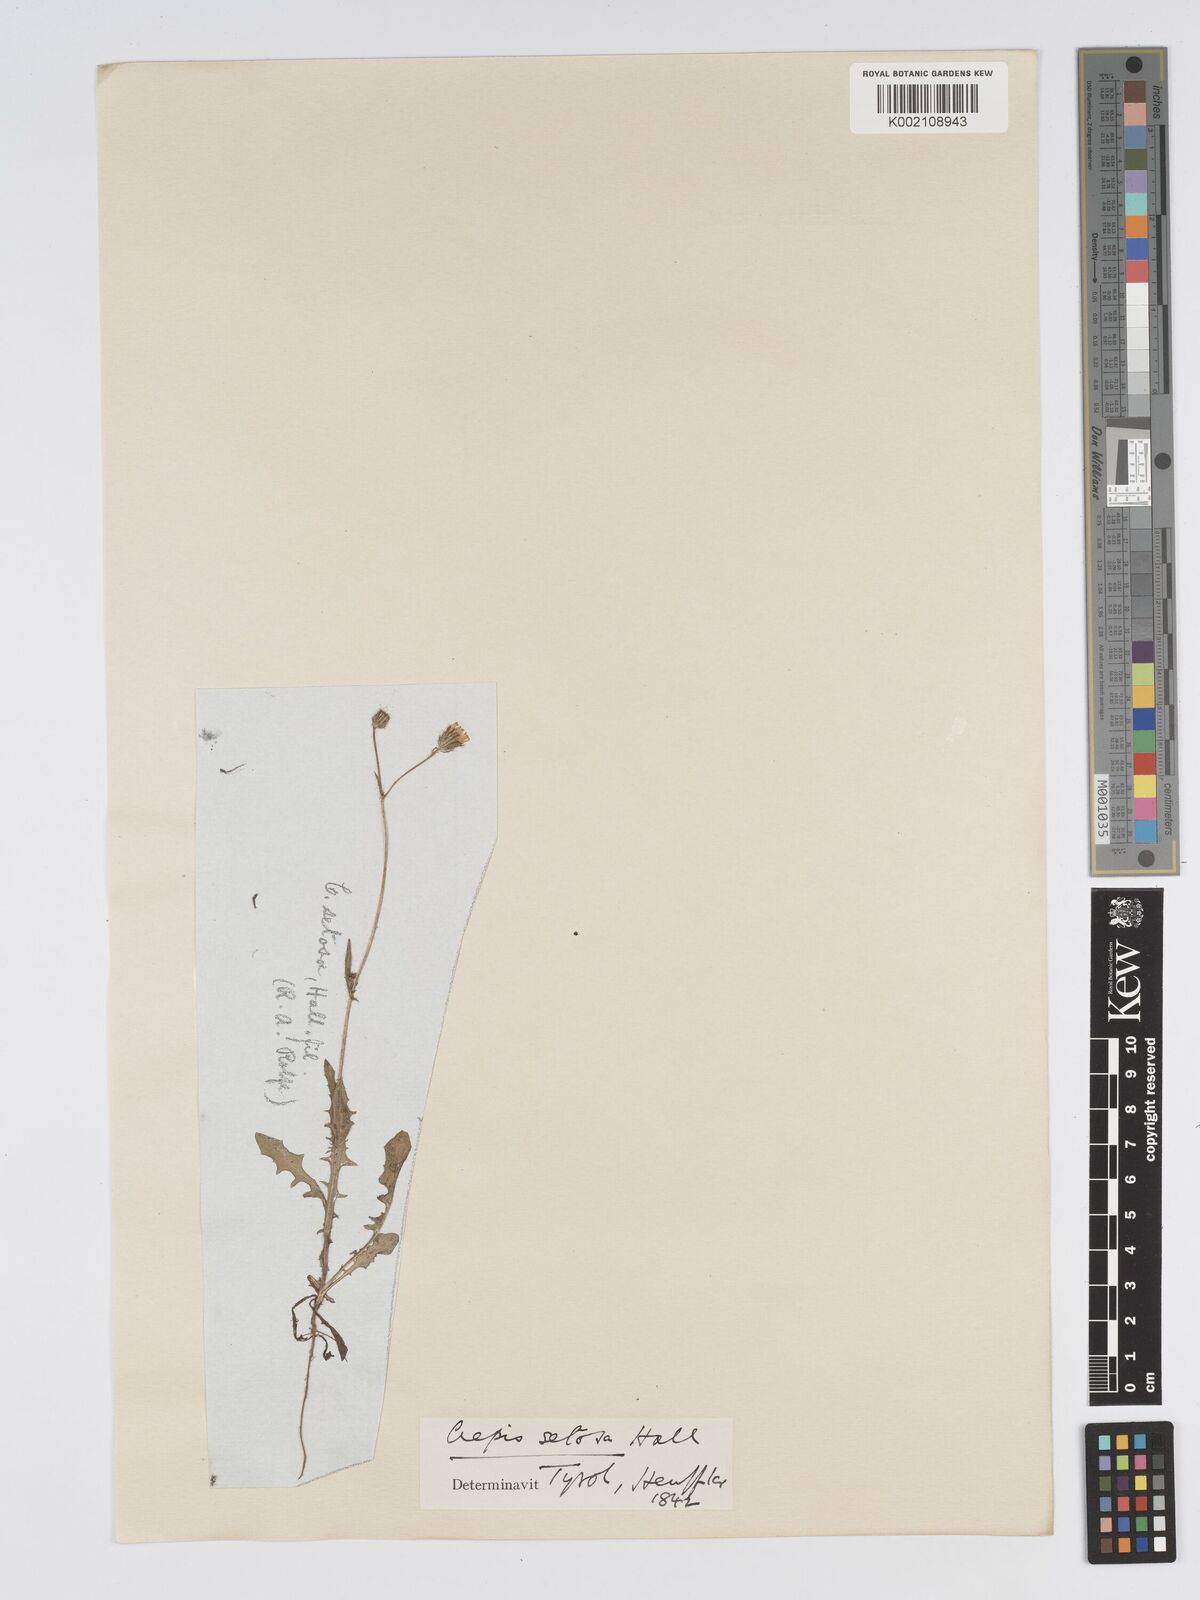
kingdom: Plantae
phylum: Tracheophyta
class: Magnoliopsida
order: Asterales
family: Asteraceae
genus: Crepis
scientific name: Crepis setosa
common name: Bristly hawk's-beard
